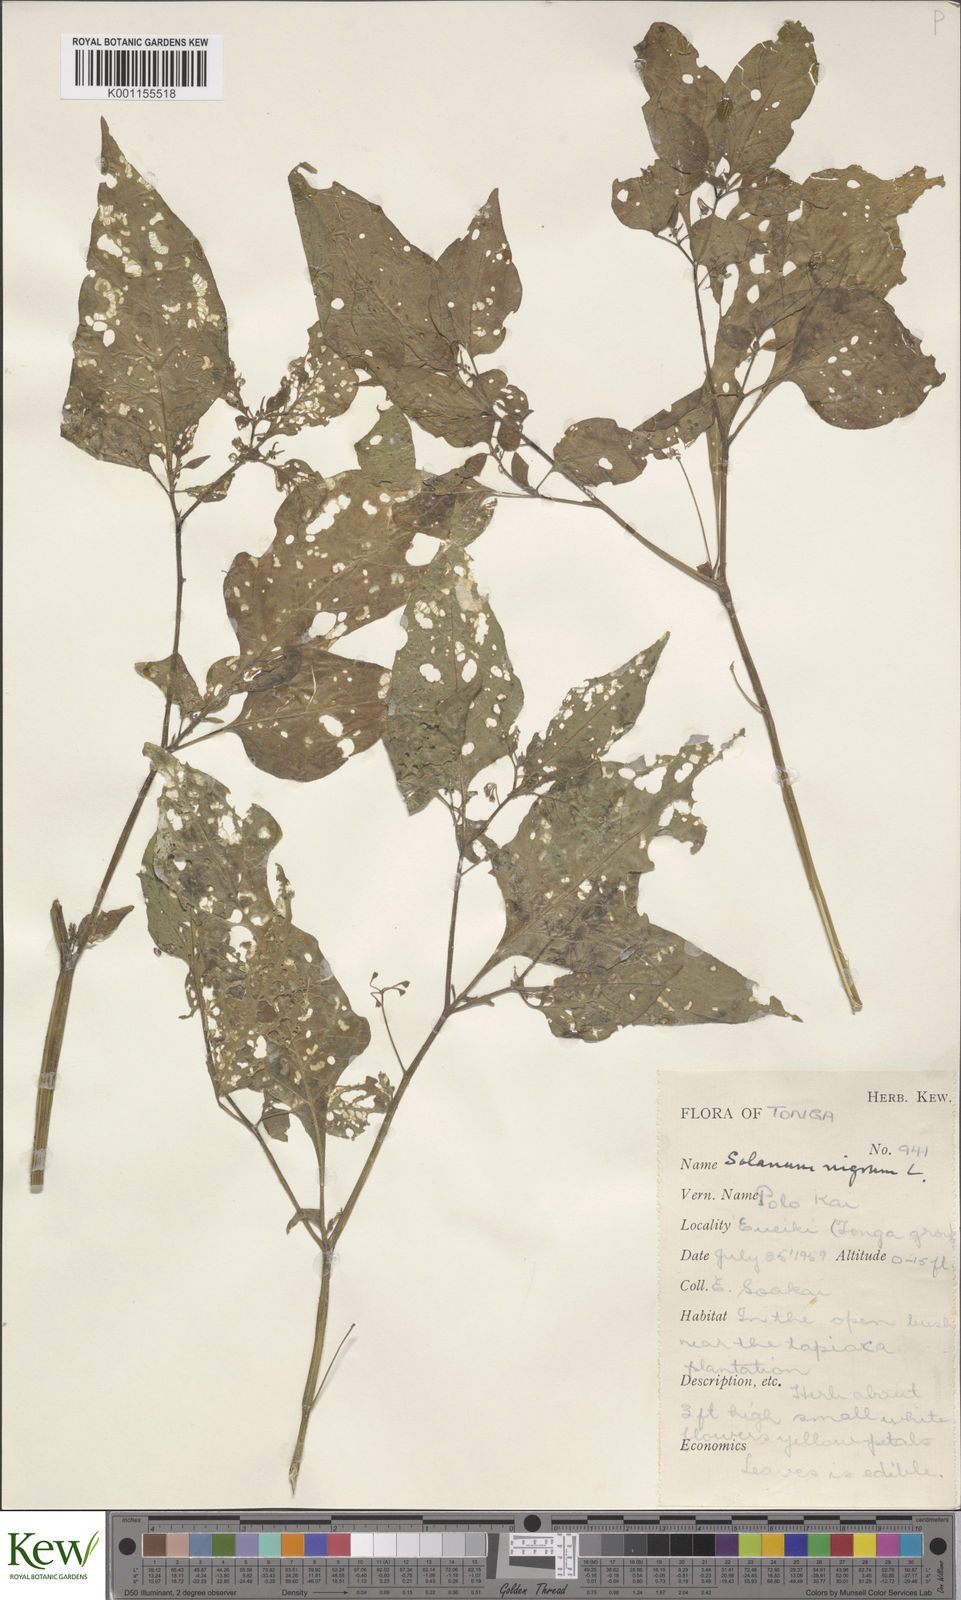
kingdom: Plantae
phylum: Tracheophyta
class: Magnoliopsida
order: Solanales
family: Solanaceae
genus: Solanum
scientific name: Solanum americanum
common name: American black nightshade
